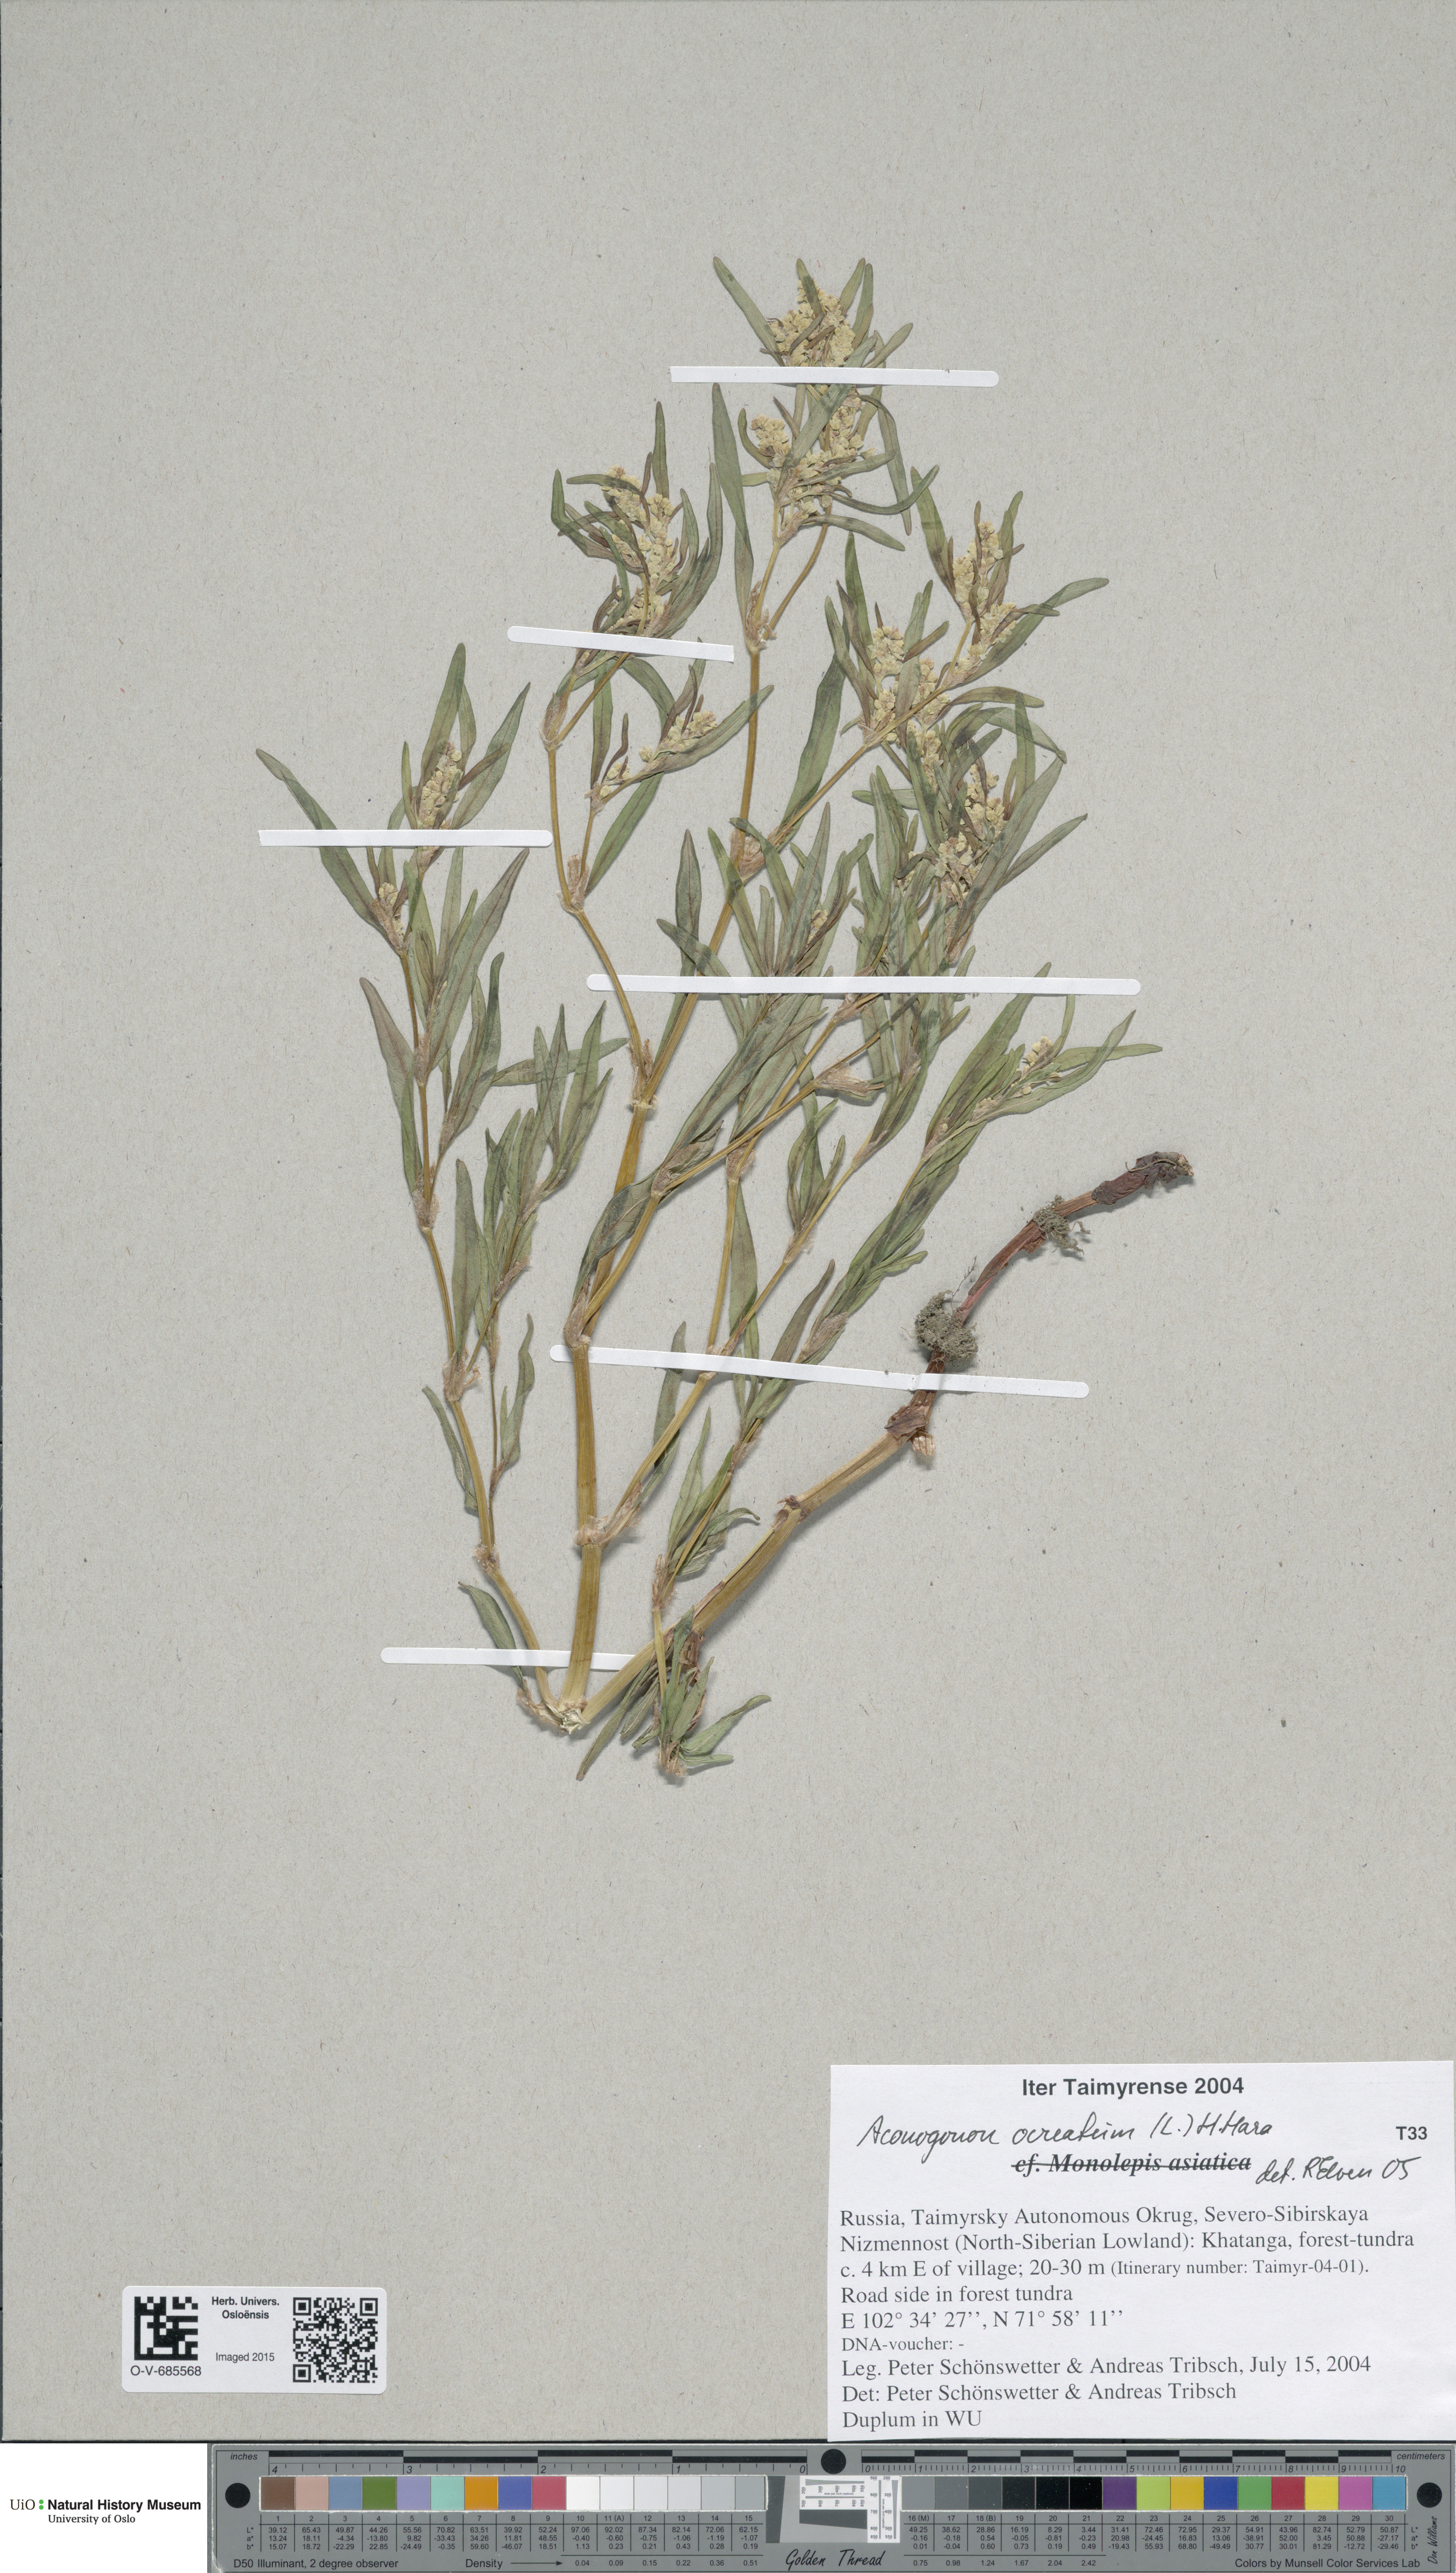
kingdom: Plantae
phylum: Tracheophyta
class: Magnoliopsida
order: Caryophyllales
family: Polygonaceae
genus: Koenigia
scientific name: Koenigia ocreata
